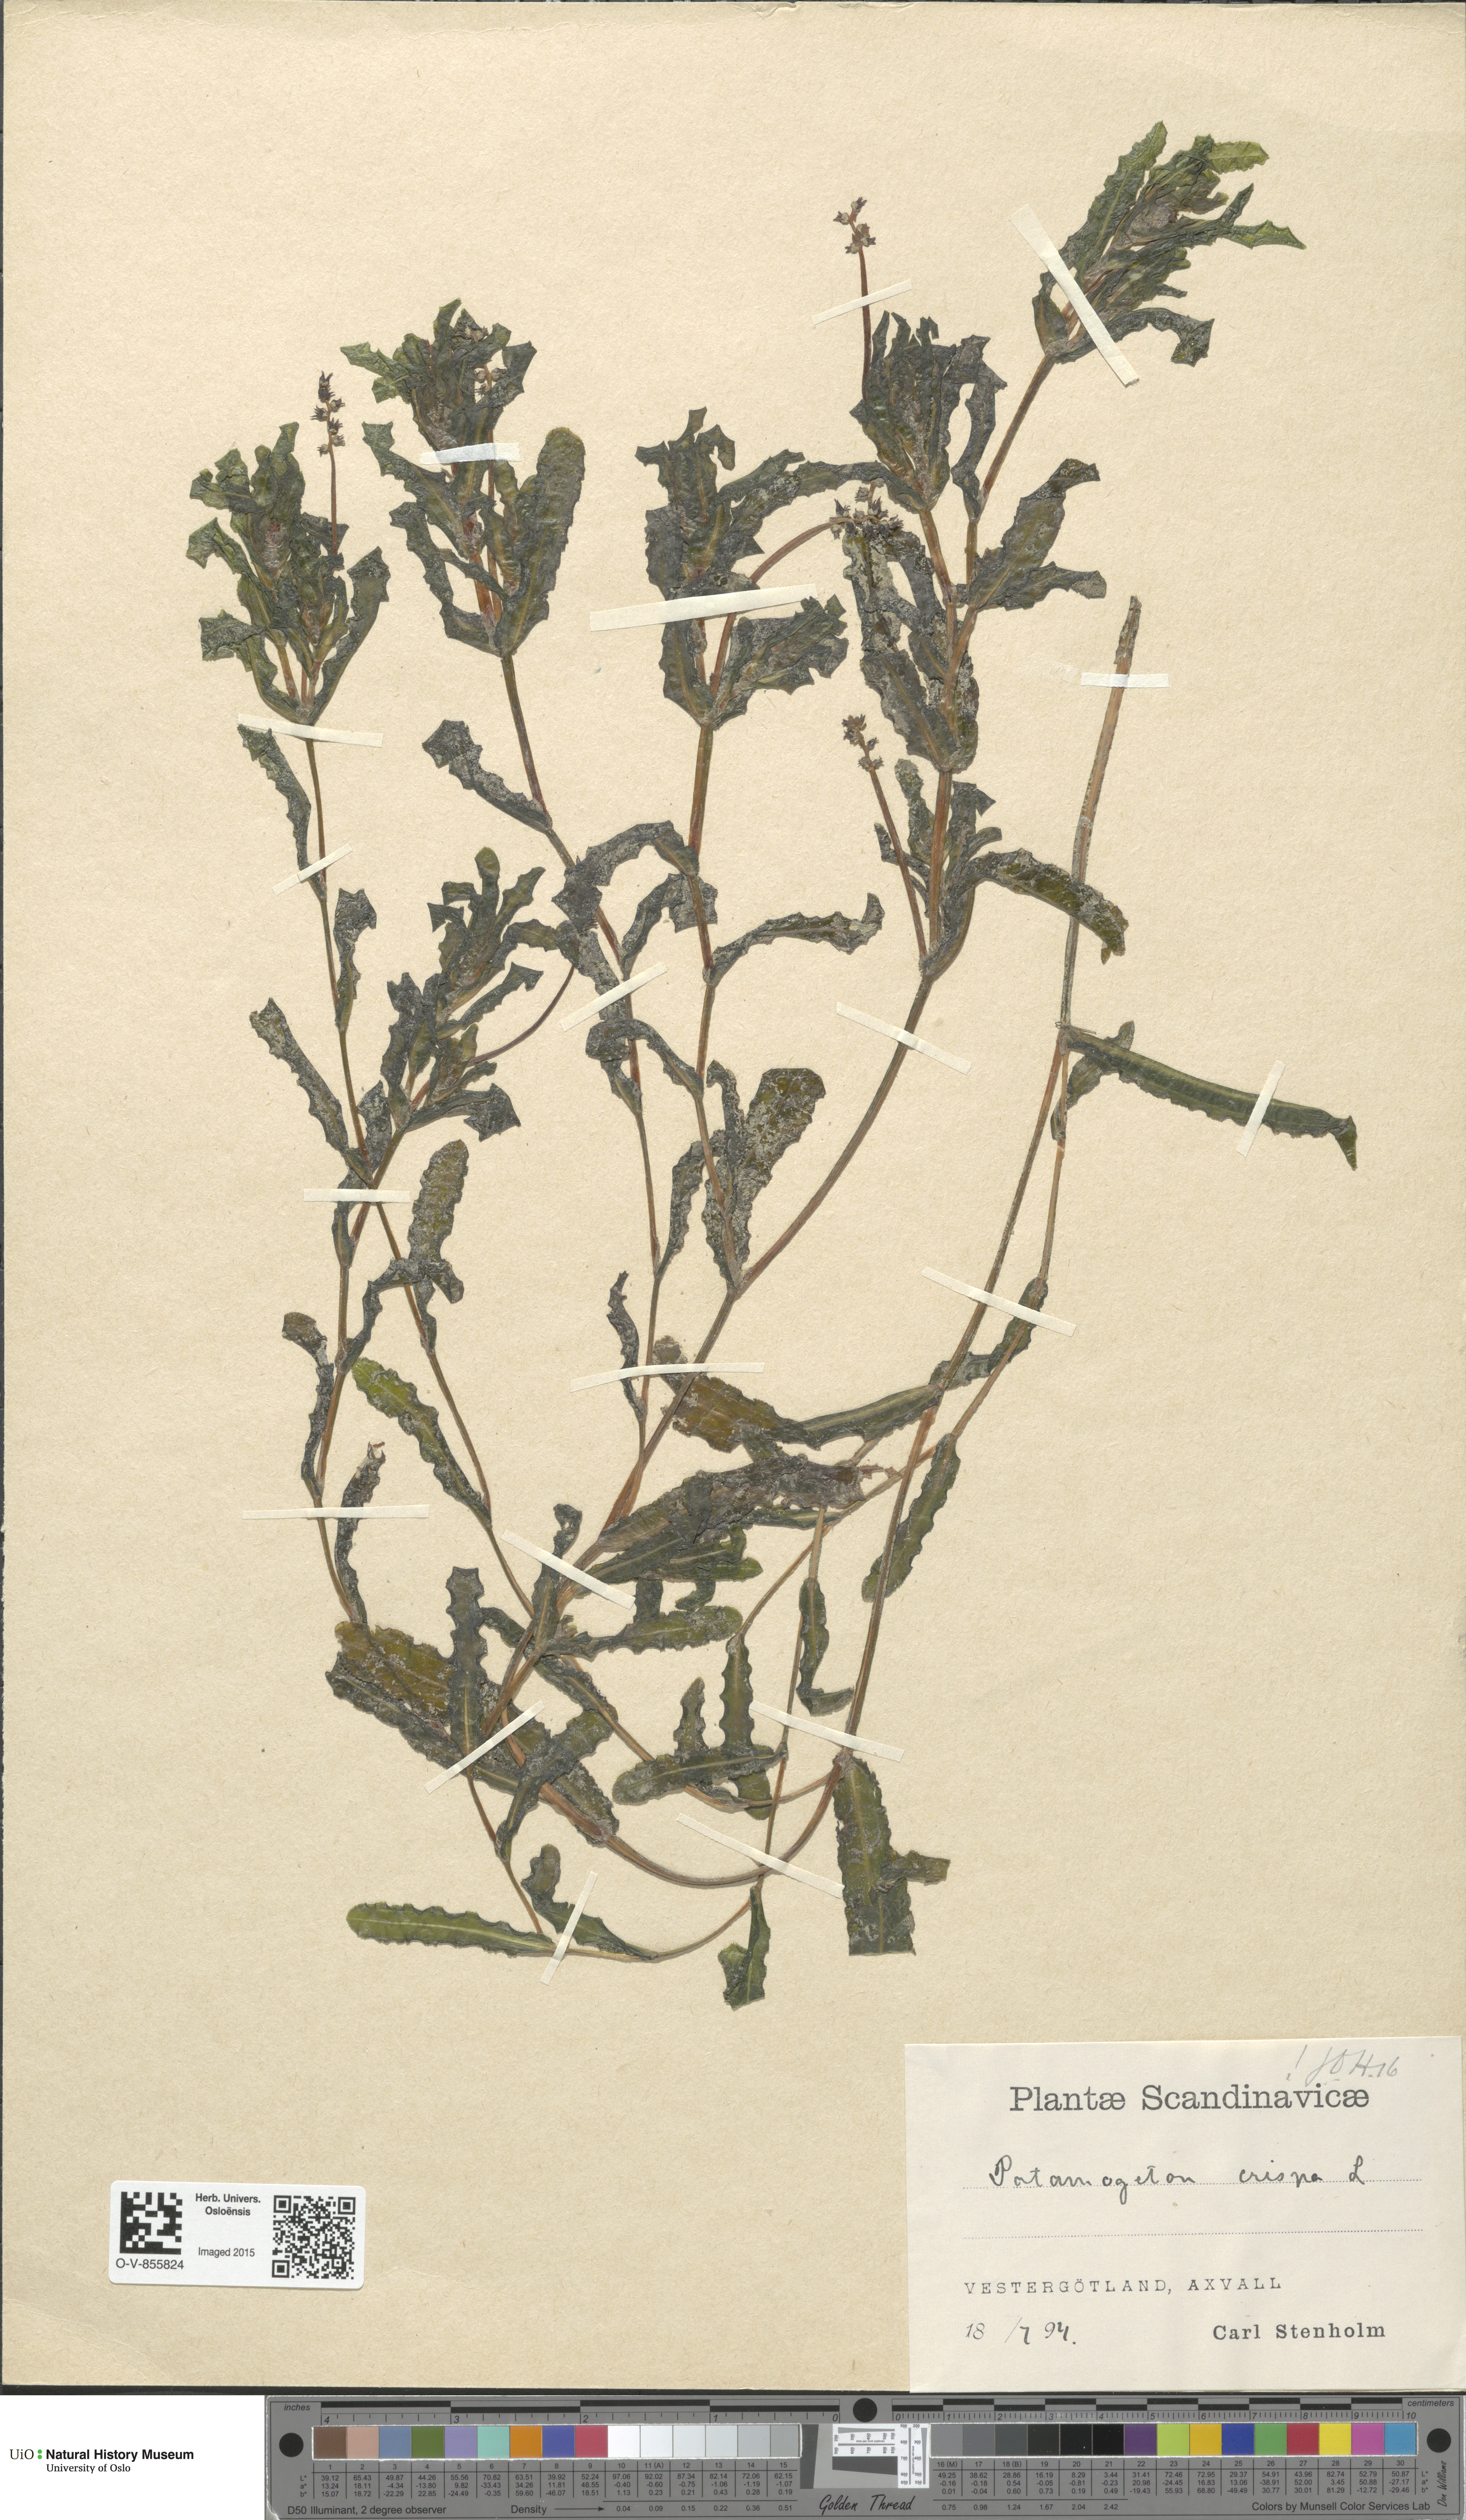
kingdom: Plantae
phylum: Tracheophyta
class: Liliopsida
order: Alismatales
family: Potamogetonaceae
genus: Potamogeton
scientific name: Potamogeton crispus
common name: Curled pondweed
